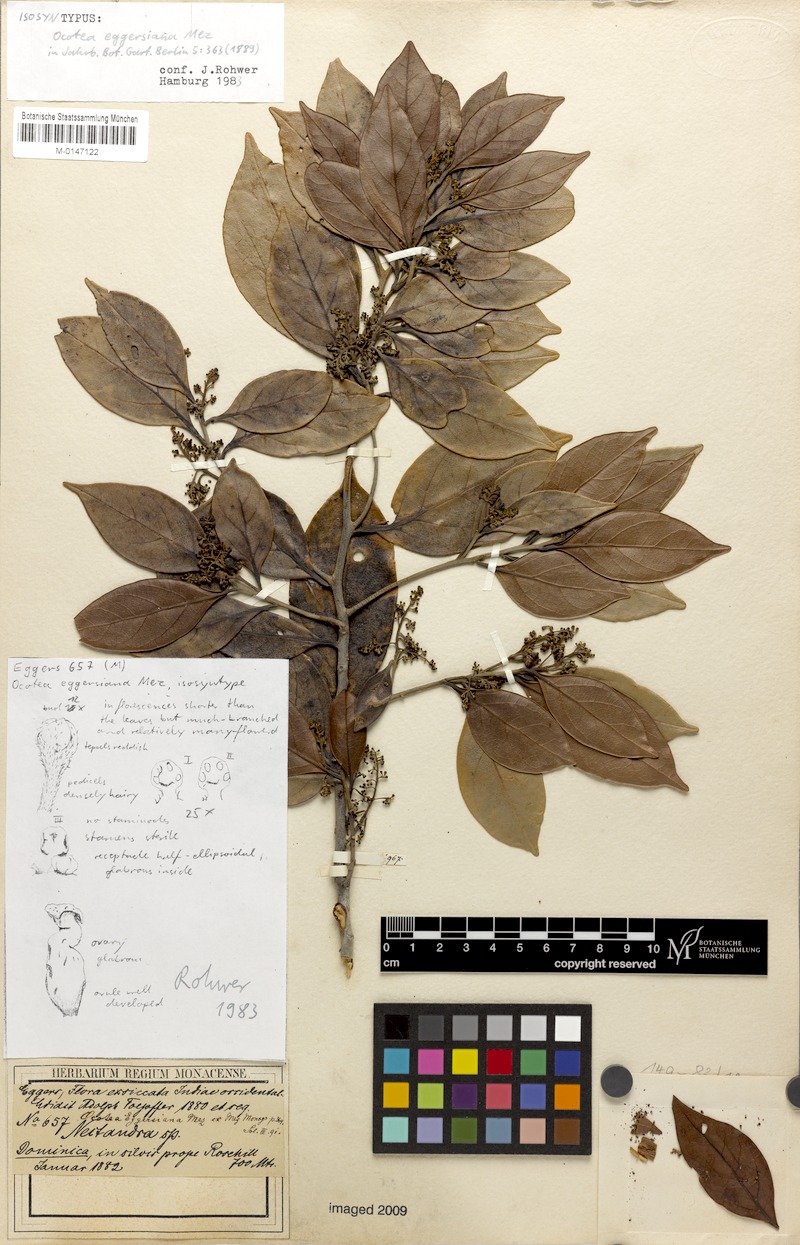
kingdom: Plantae
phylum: Tracheophyta
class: Magnoliopsida
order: Laurales
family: Lauraceae
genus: Ocotea
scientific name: Ocotea eggersiana
